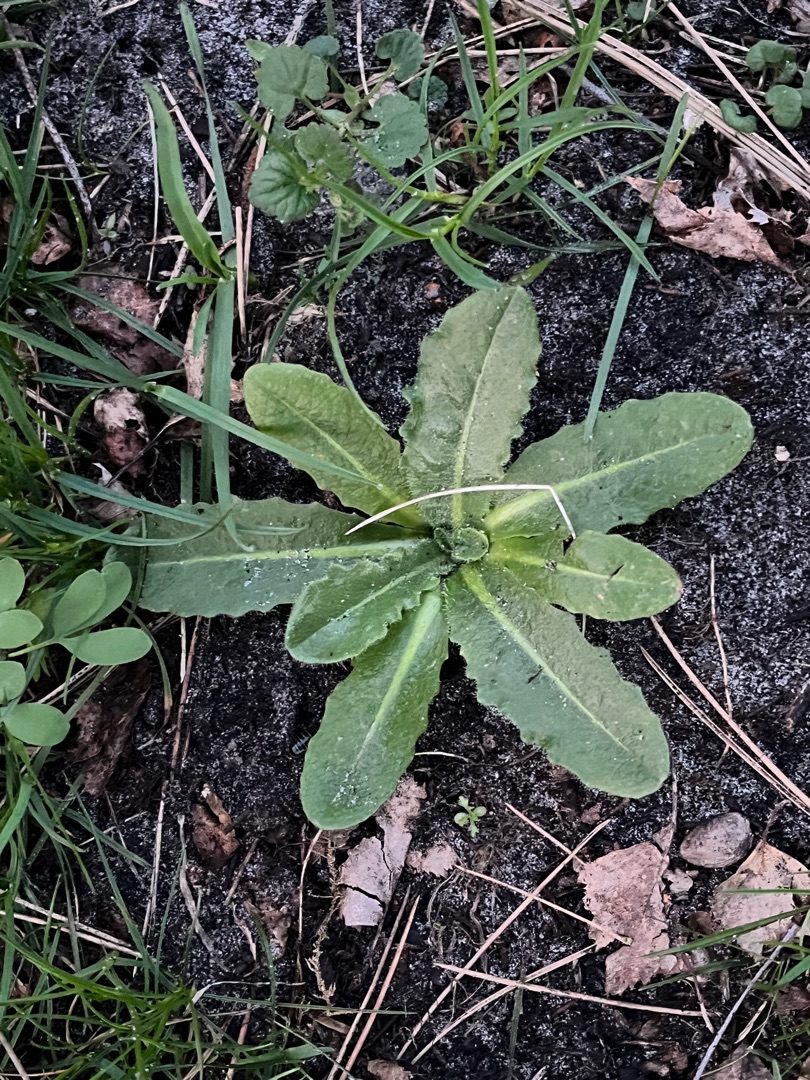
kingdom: Plantae
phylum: Tracheophyta
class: Magnoliopsida
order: Asterales
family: Asteraceae
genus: Hypochaeris
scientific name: Hypochaeris radicata
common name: Almindelig kongepen
